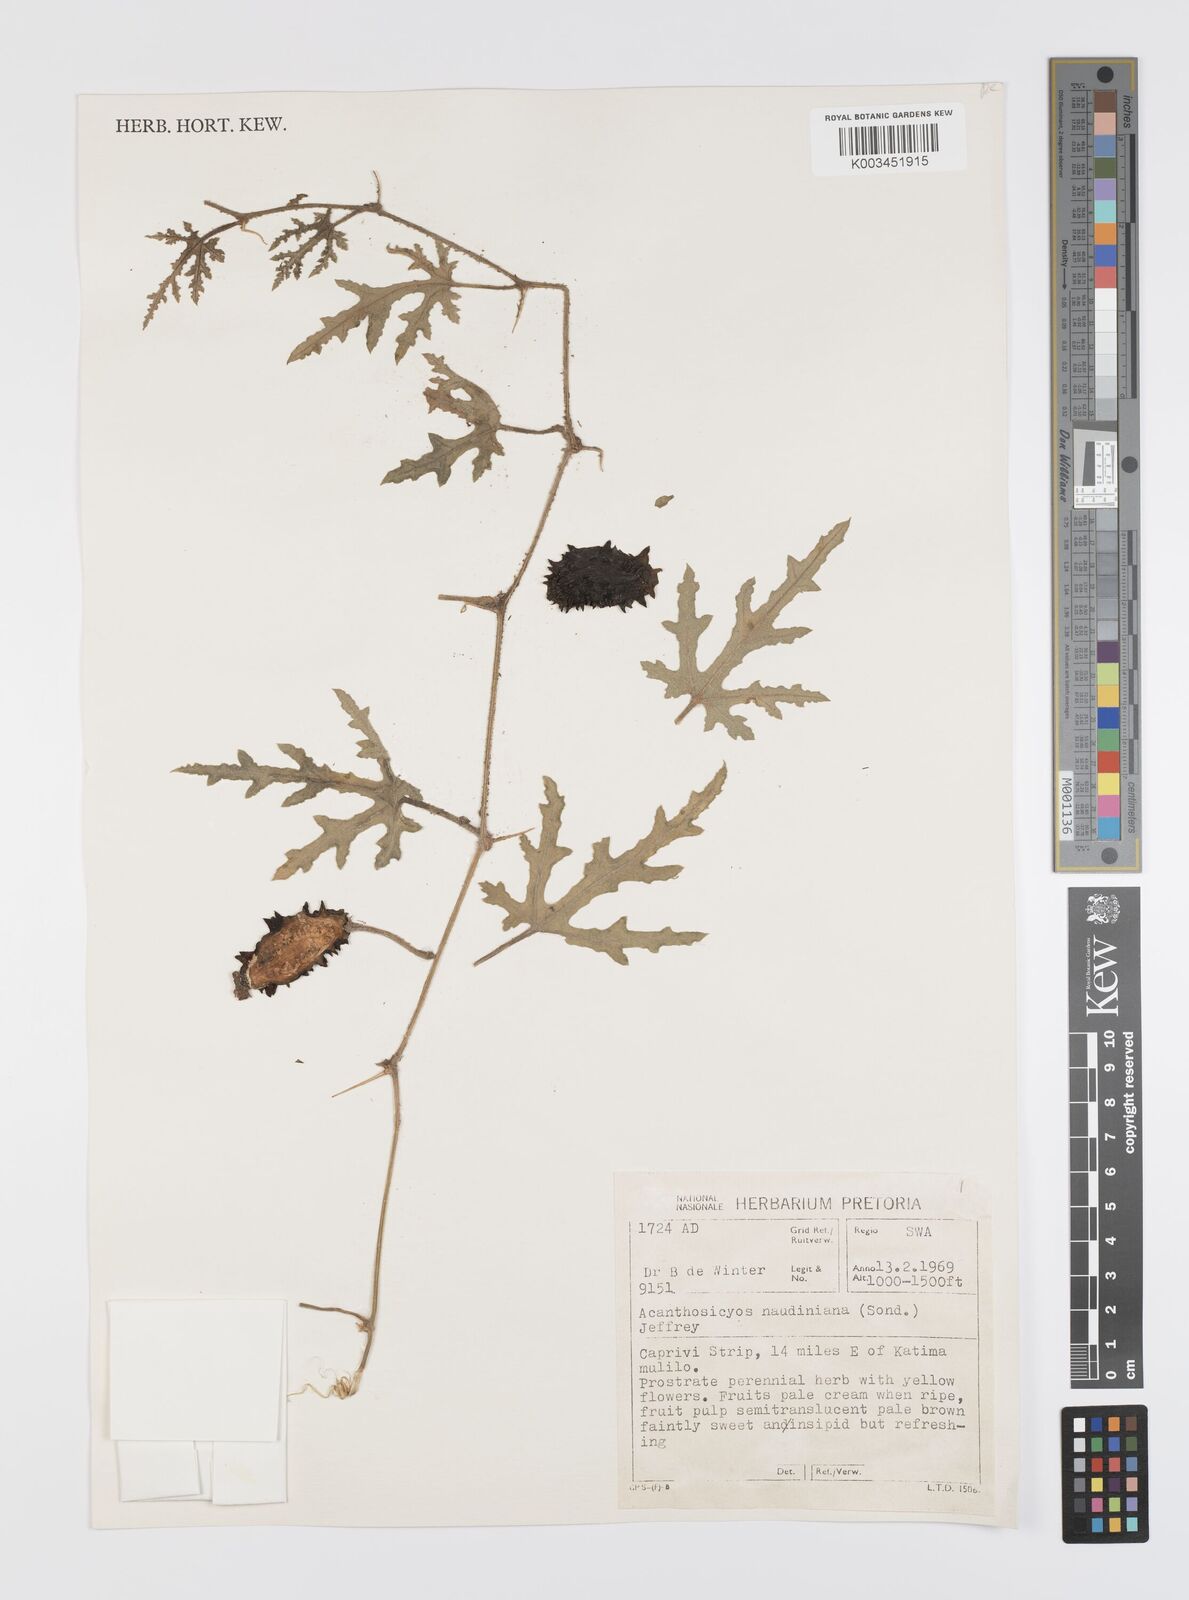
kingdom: Plantae
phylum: Tracheophyta
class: Magnoliopsida
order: Cucurbitales
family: Cucurbitaceae
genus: Citrullus
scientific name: Citrullus naudinianus
